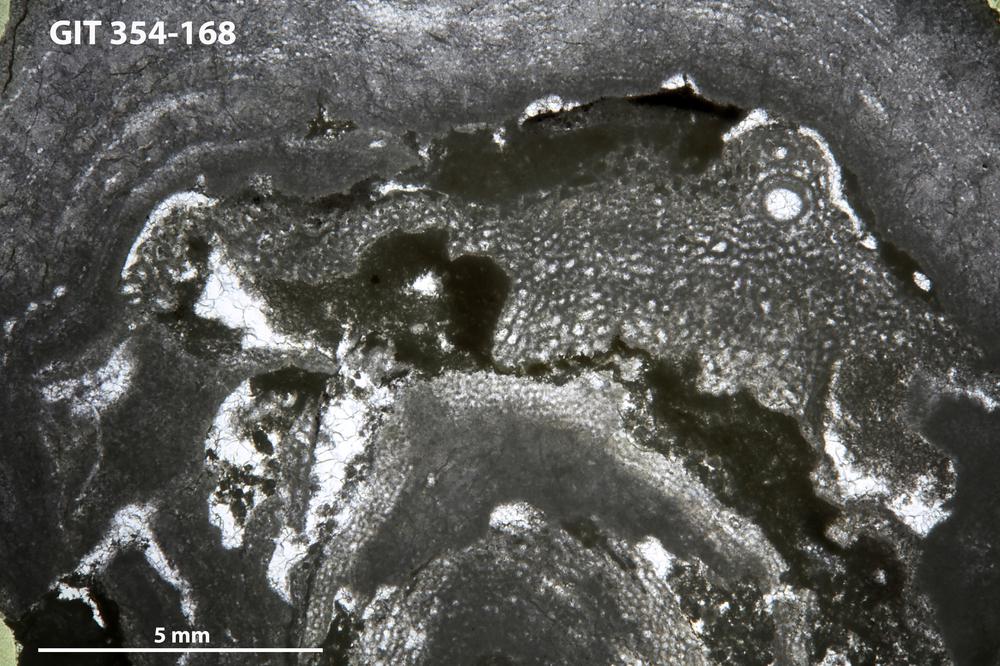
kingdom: Animalia
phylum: Porifera
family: Clathrodictyidae
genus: Clathrodictyon
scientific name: Clathrodictyon boreale
